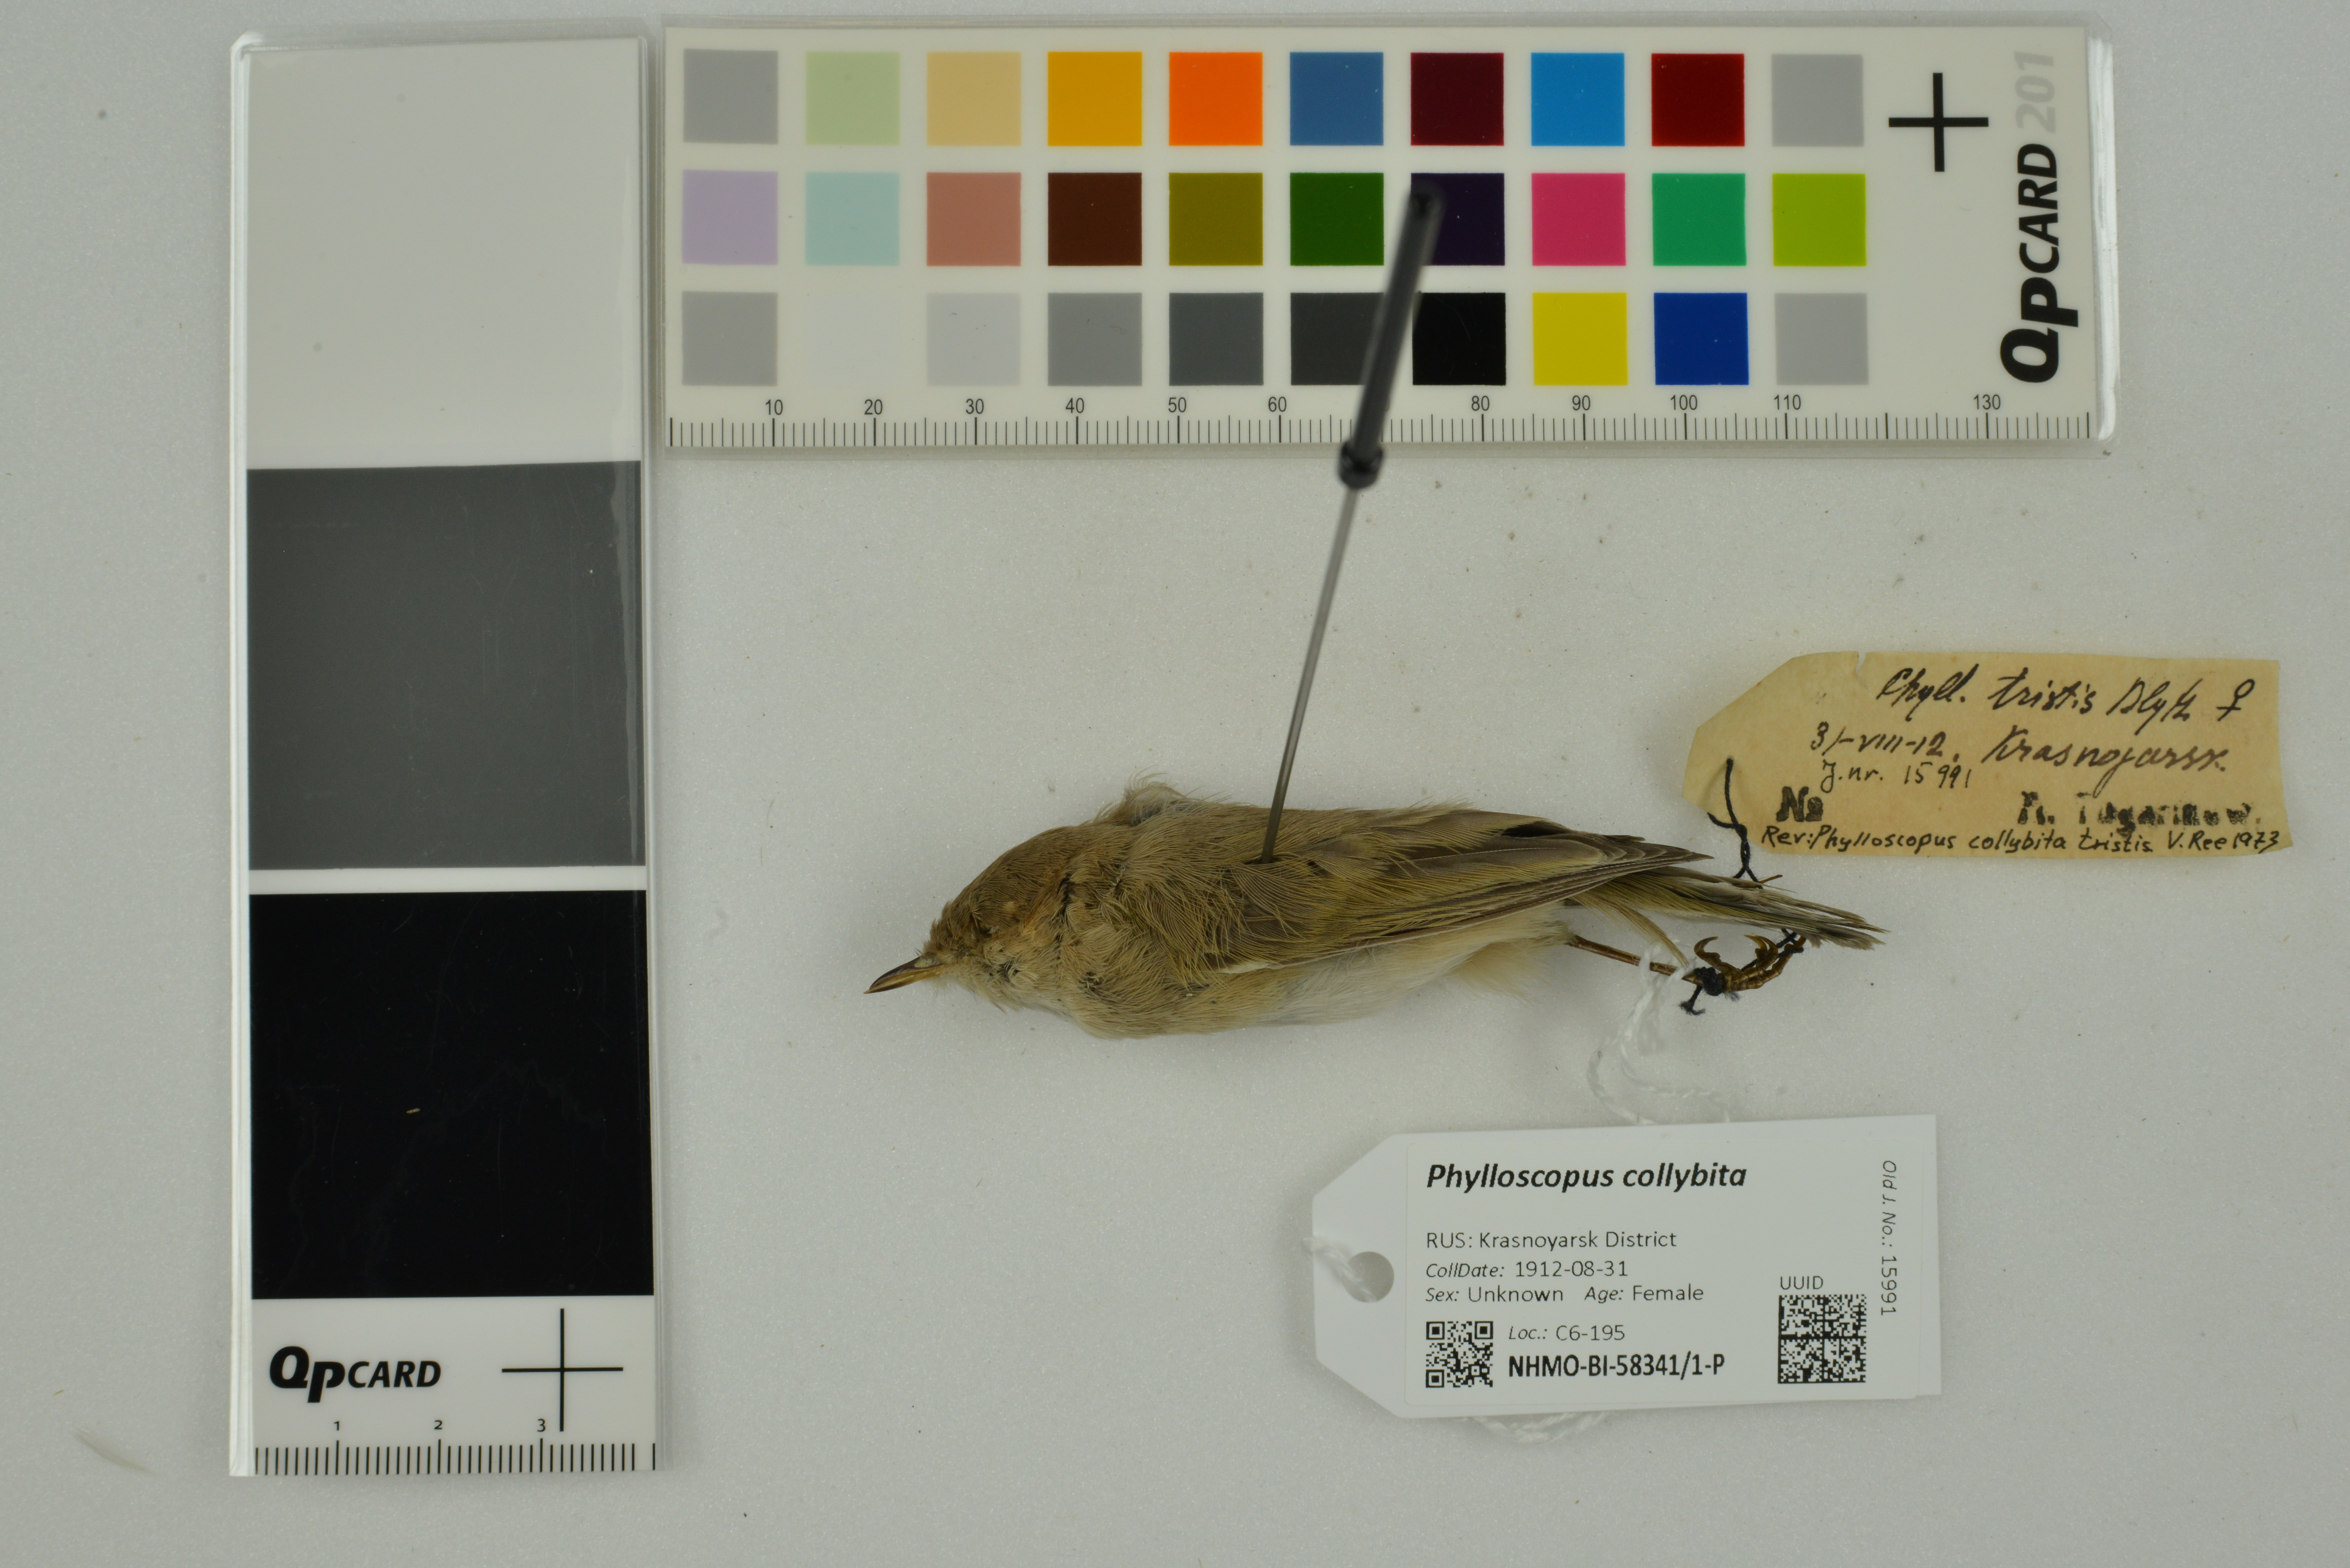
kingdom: Animalia
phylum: Chordata
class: Aves
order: Passeriformes
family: Phylloscopidae
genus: Phylloscopus
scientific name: Phylloscopus collybita
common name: Common chiffchaff
